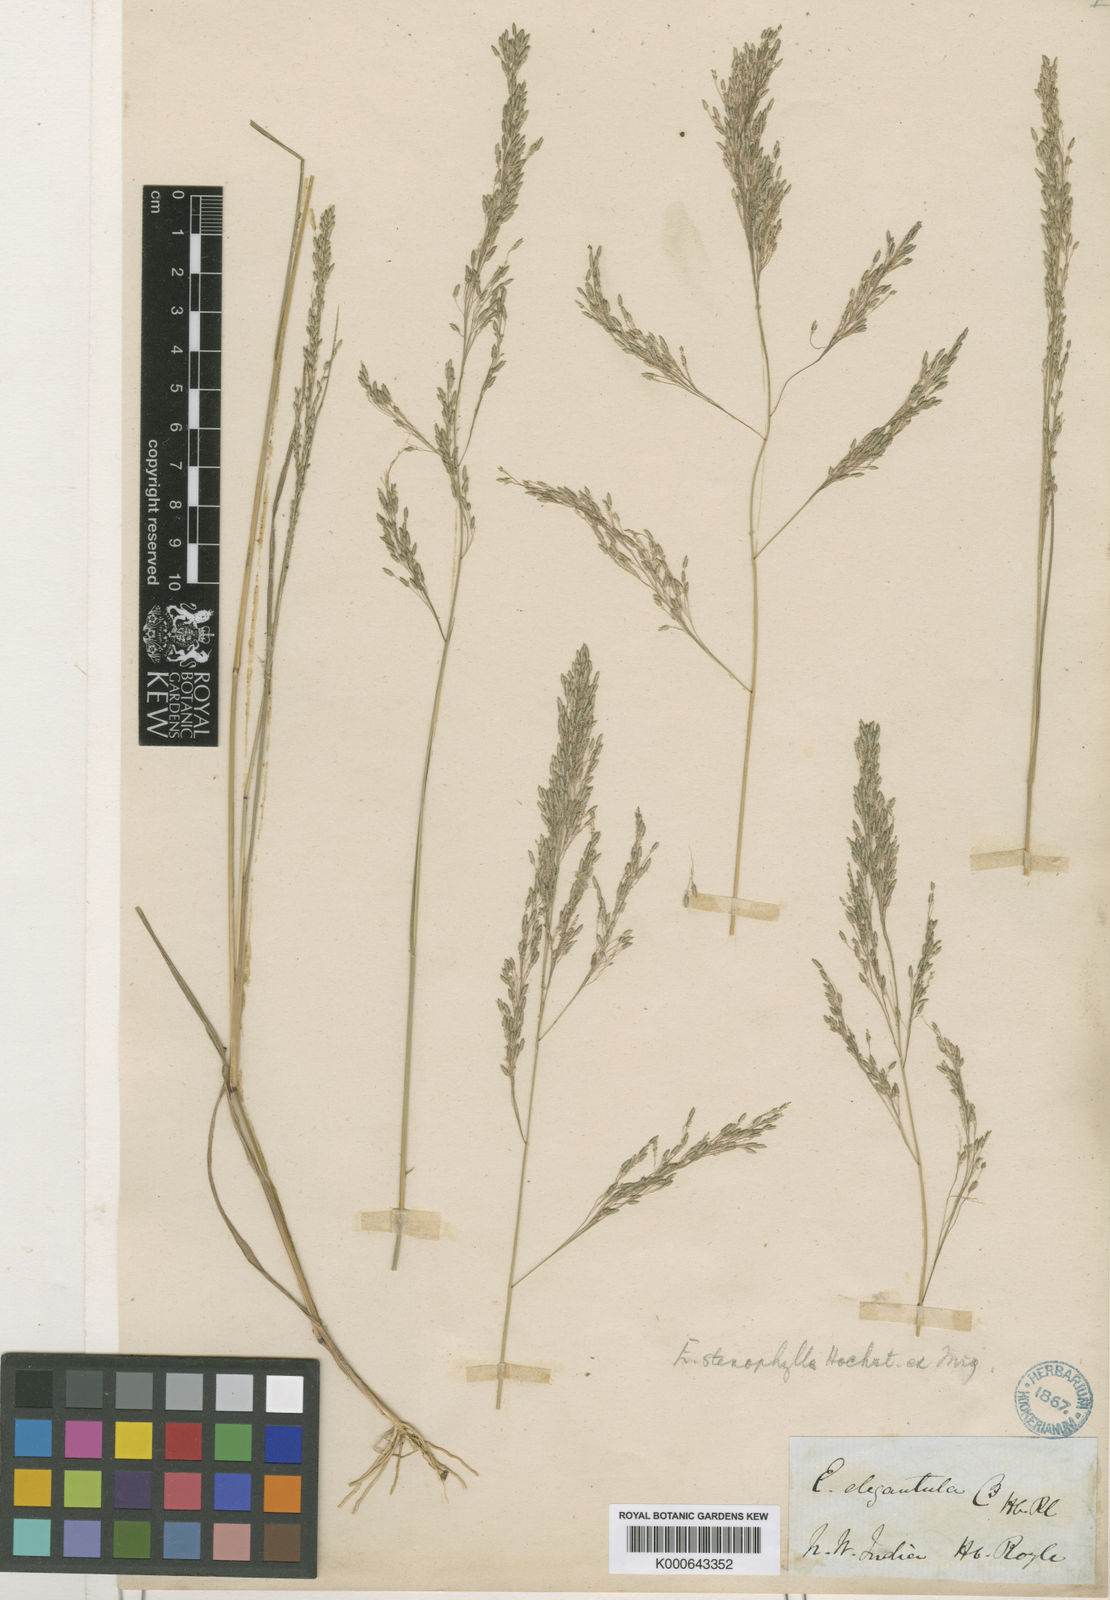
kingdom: Plantae
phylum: Tracheophyta
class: Liliopsida
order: Poales
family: Poaceae
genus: Eragrostis
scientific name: Eragrostis nutans
